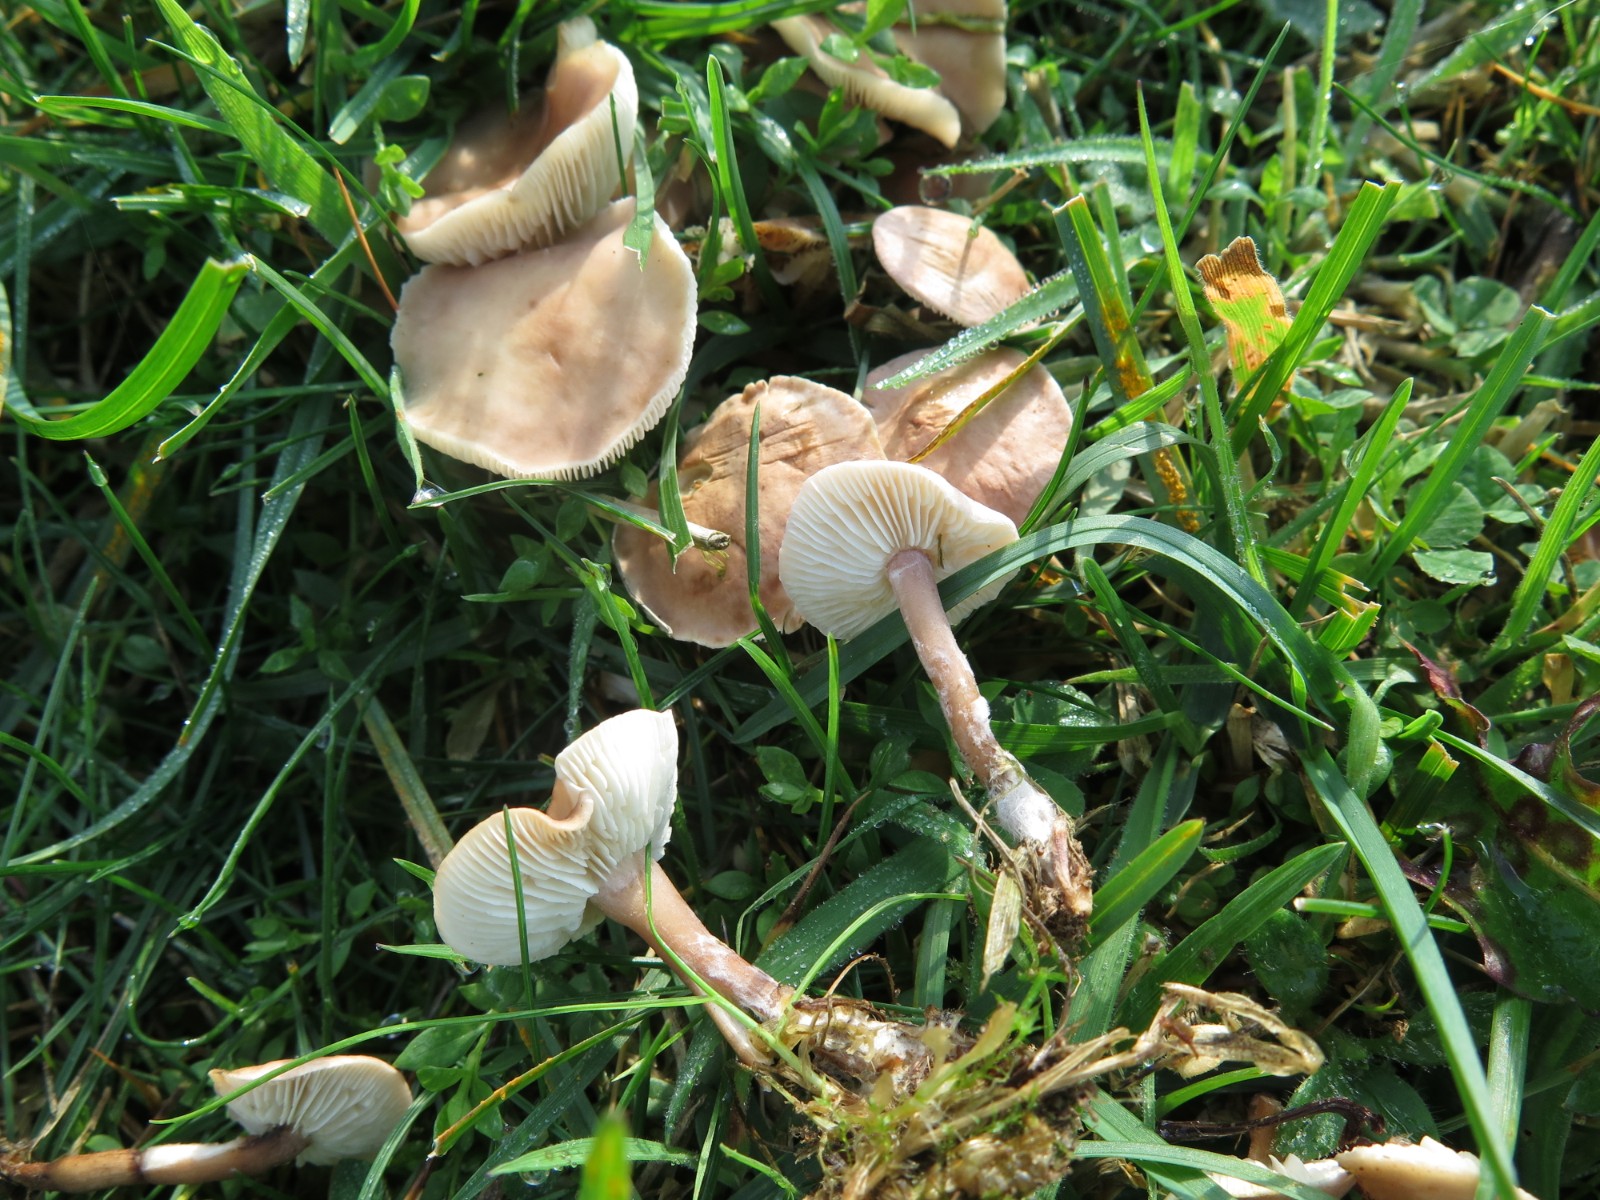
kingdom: Fungi
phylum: Basidiomycota
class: Agaricomycetes
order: Agaricales
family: Lyophyllaceae
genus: Calocybe
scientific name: Calocybe carnea
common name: rosa fagerhat
